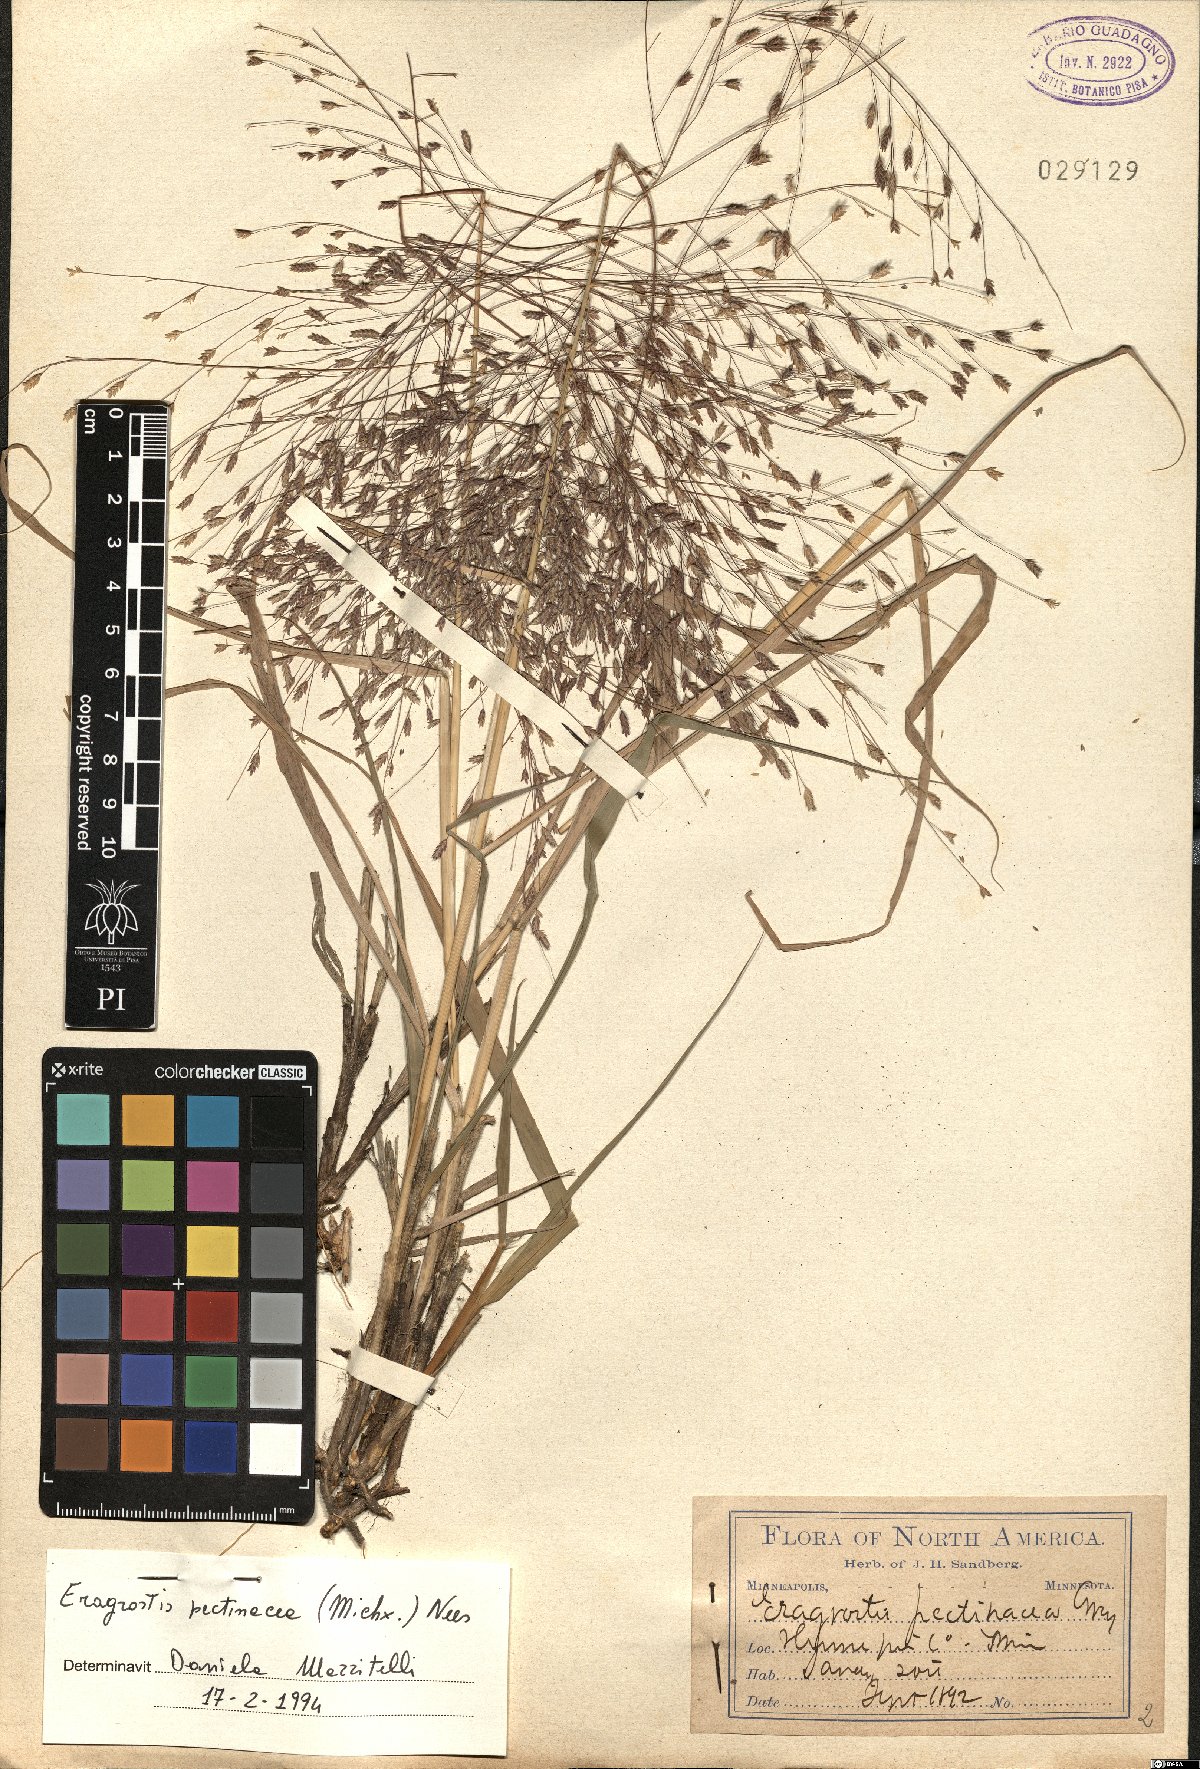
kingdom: Plantae
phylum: Tracheophyta
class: Liliopsida
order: Poales
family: Poaceae
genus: Eragrostis
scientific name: Eragrostis pectinacea
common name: Tufted lovegrass
